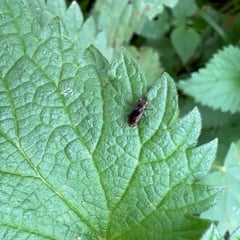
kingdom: Animalia
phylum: Arthropoda
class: Insecta
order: Coleoptera
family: Carabidae
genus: Notiophilus
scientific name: Notiophilus
